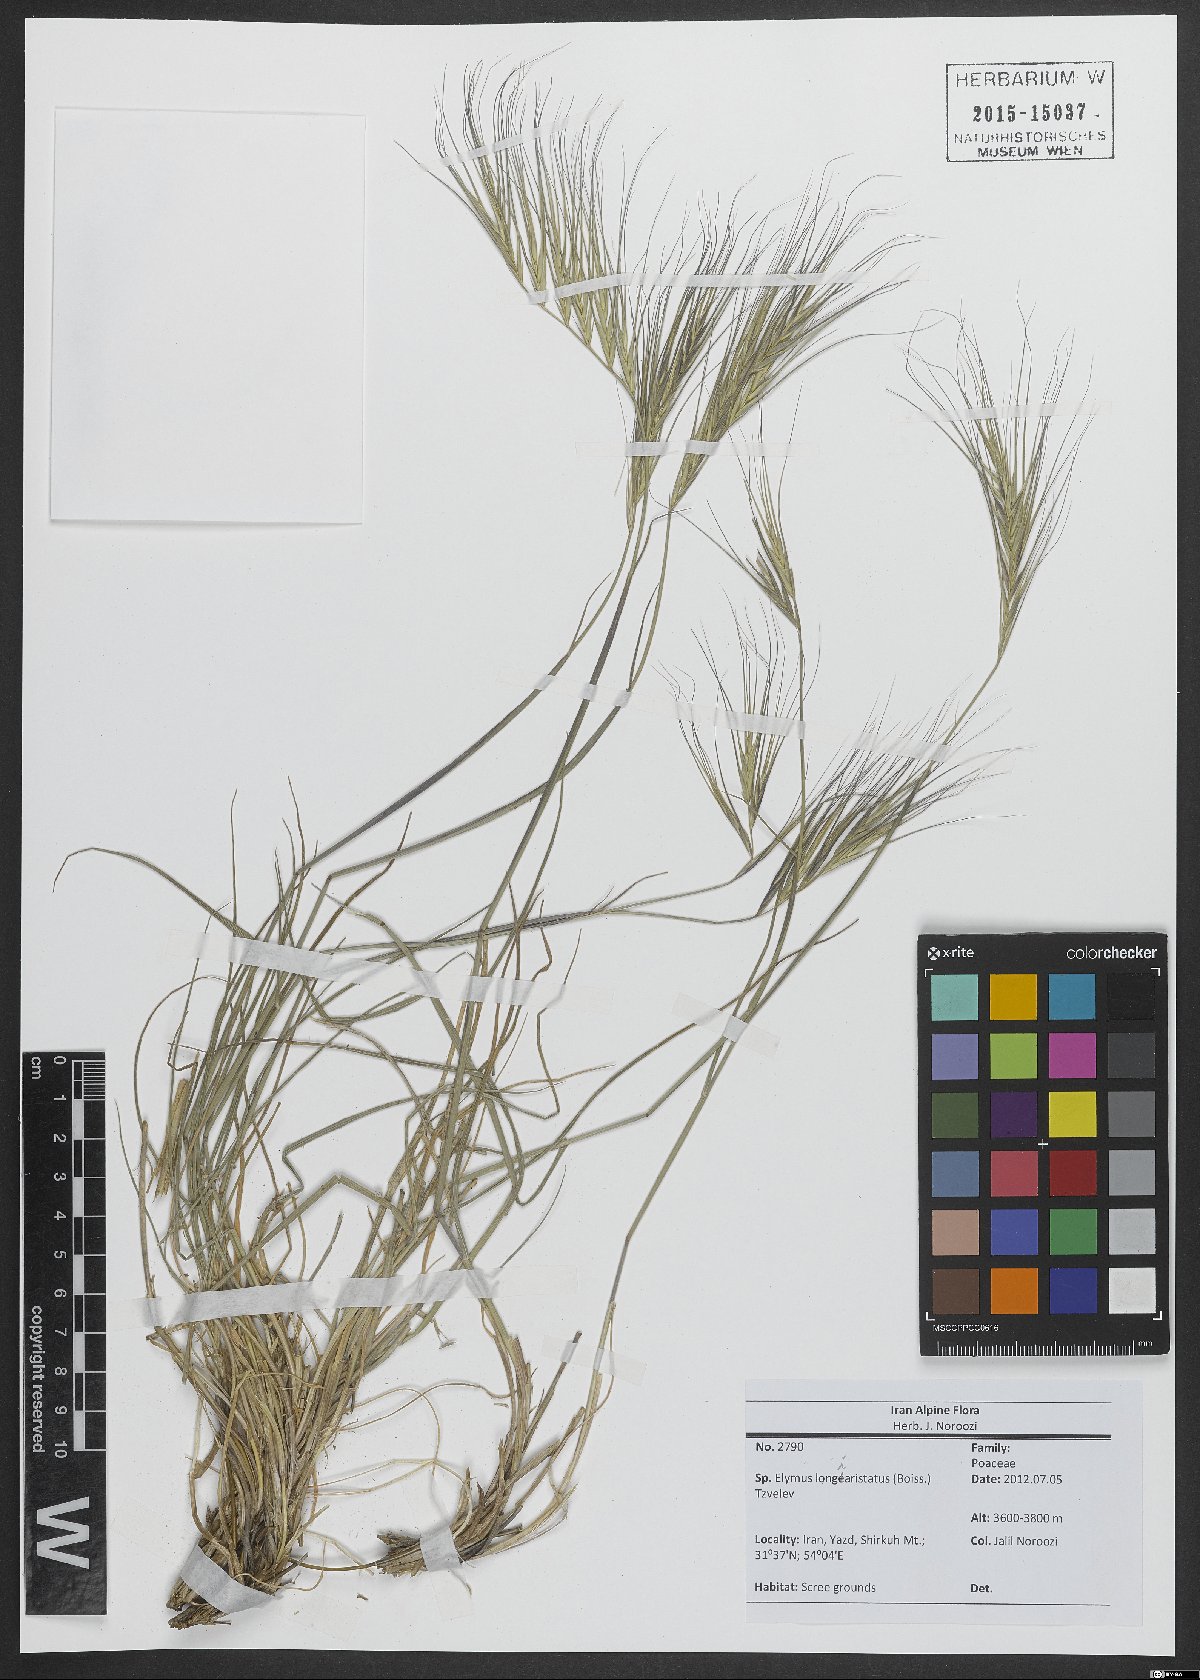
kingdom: Plantae
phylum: Tracheophyta
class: Liliopsida
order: Poales
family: Poaceae
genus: Elymus
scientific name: Elymus longiaristatus
